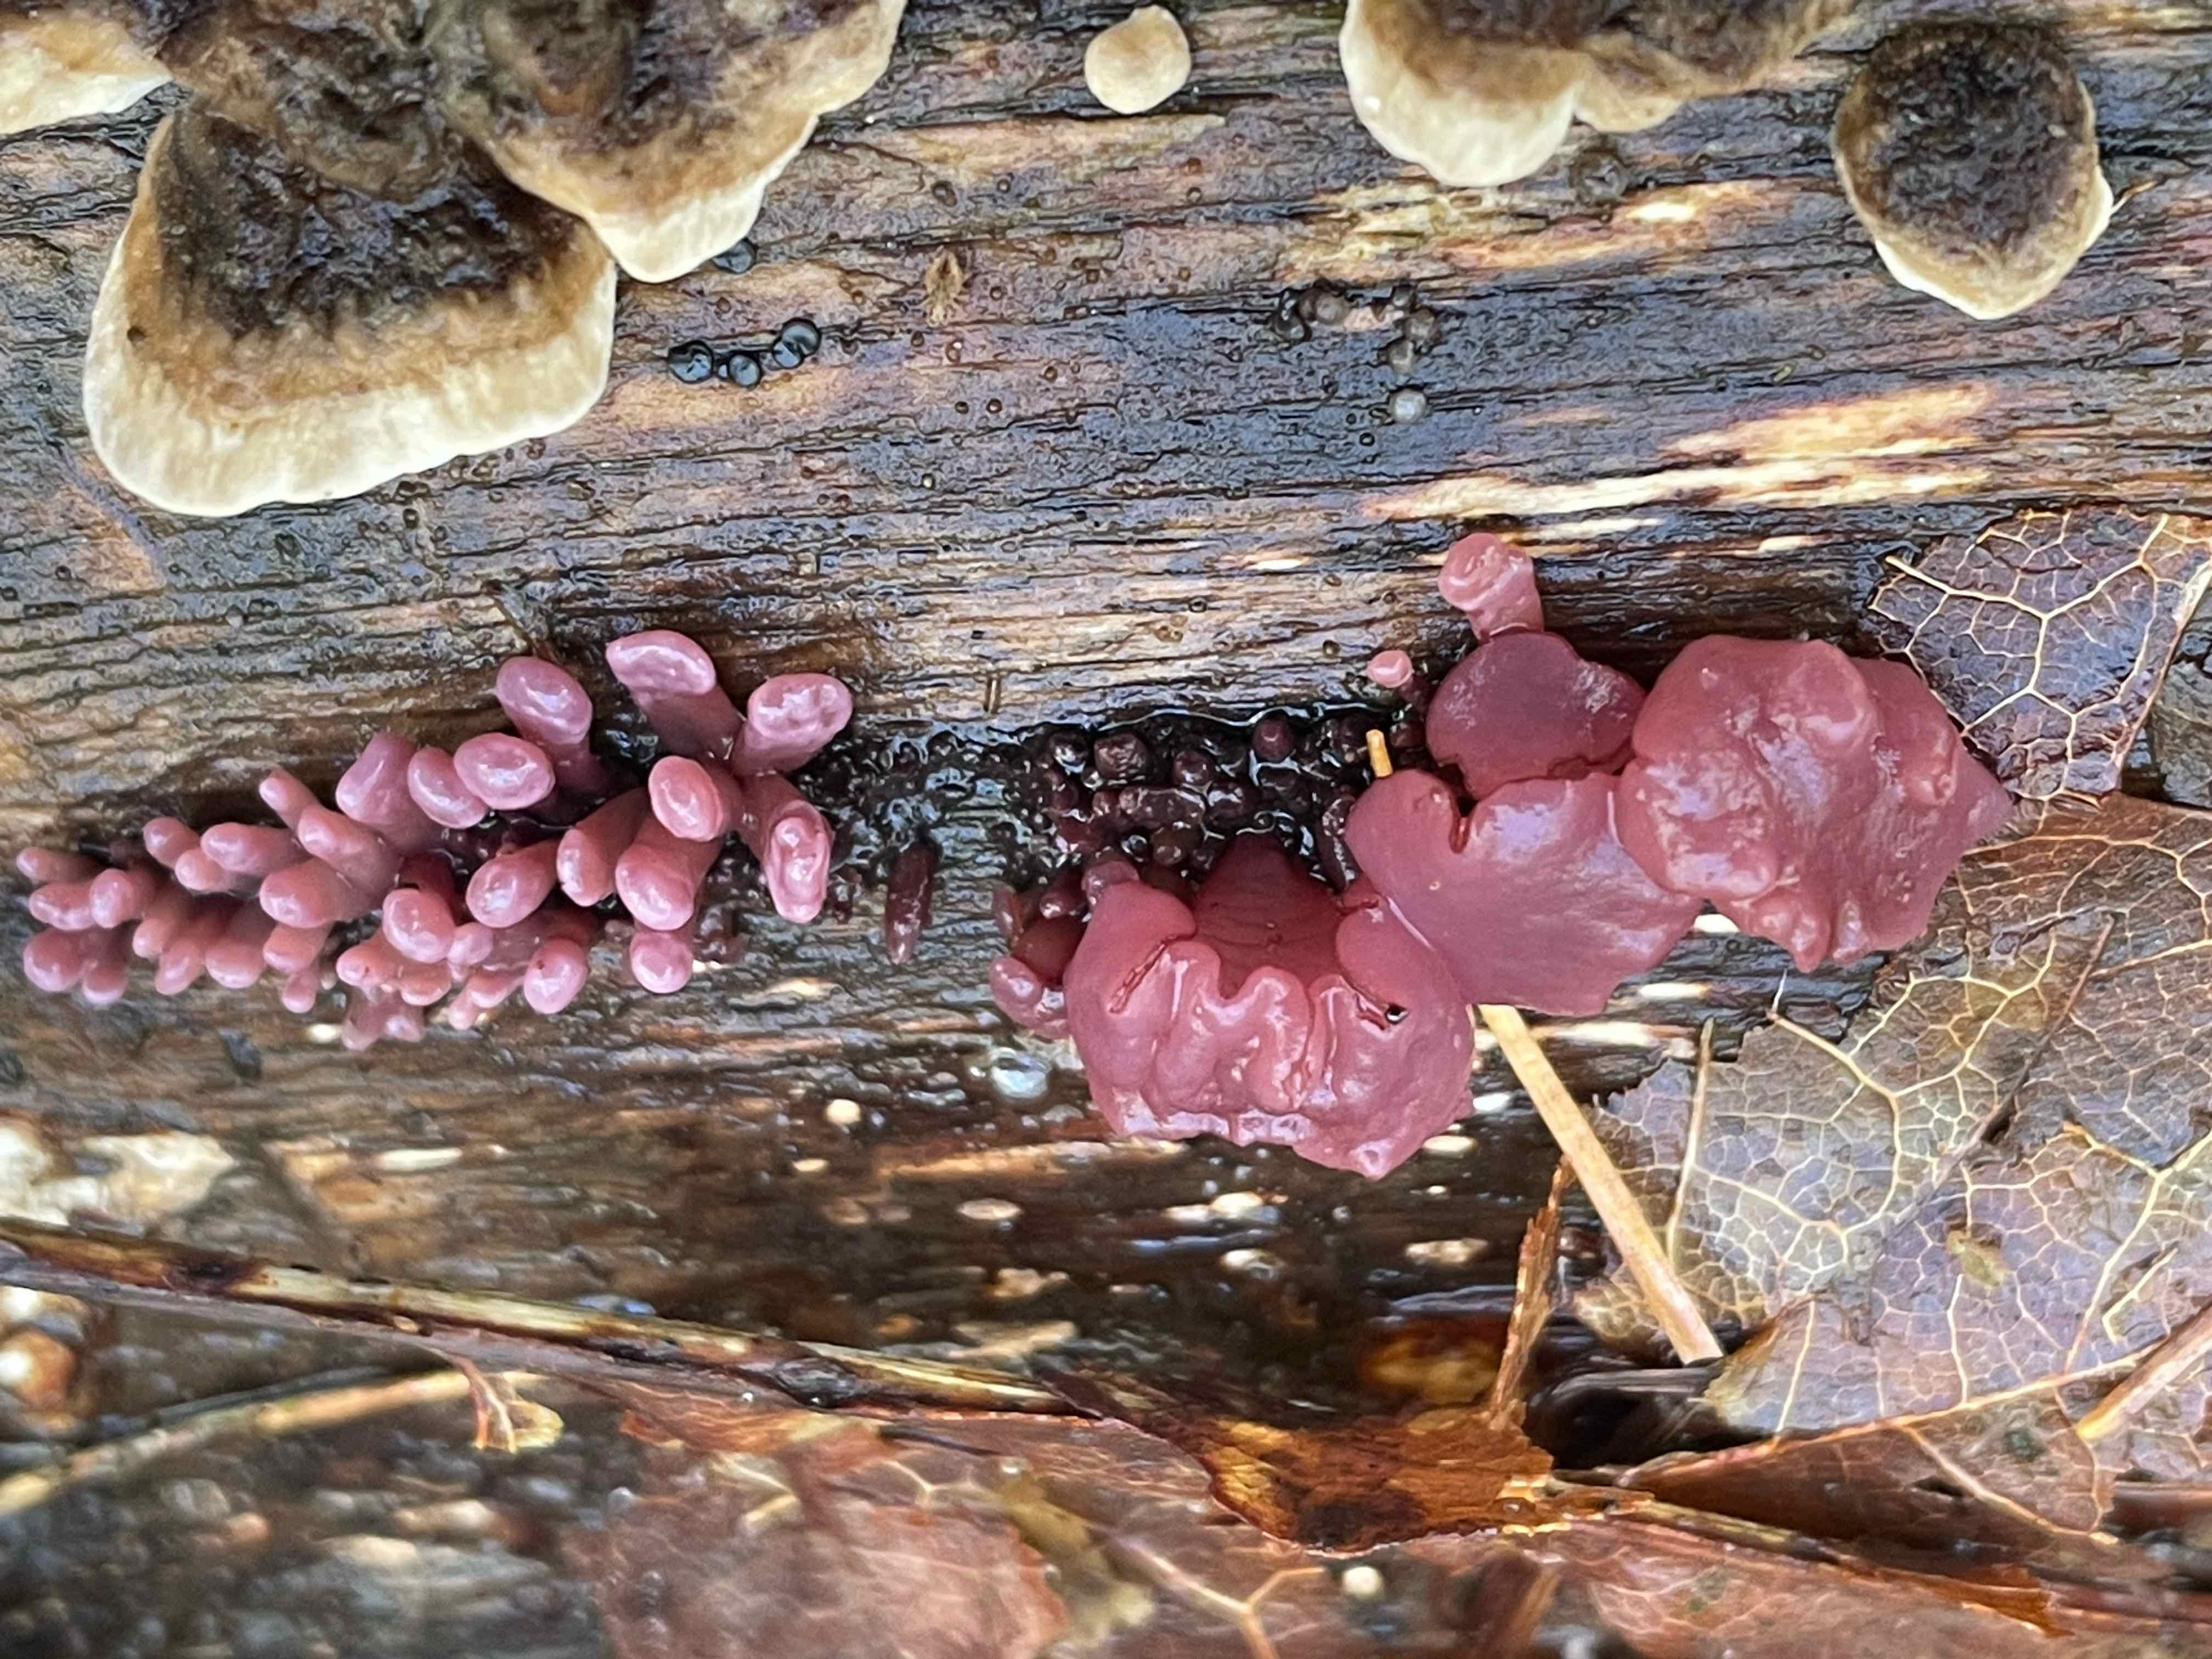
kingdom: Fungi
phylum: Ascomycota
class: Leotiomycetes
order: Helotiales
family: Gelatinodiscaceae
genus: Ascocoryne
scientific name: Ascocoryne sarcoides
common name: rødlilla sejskive
